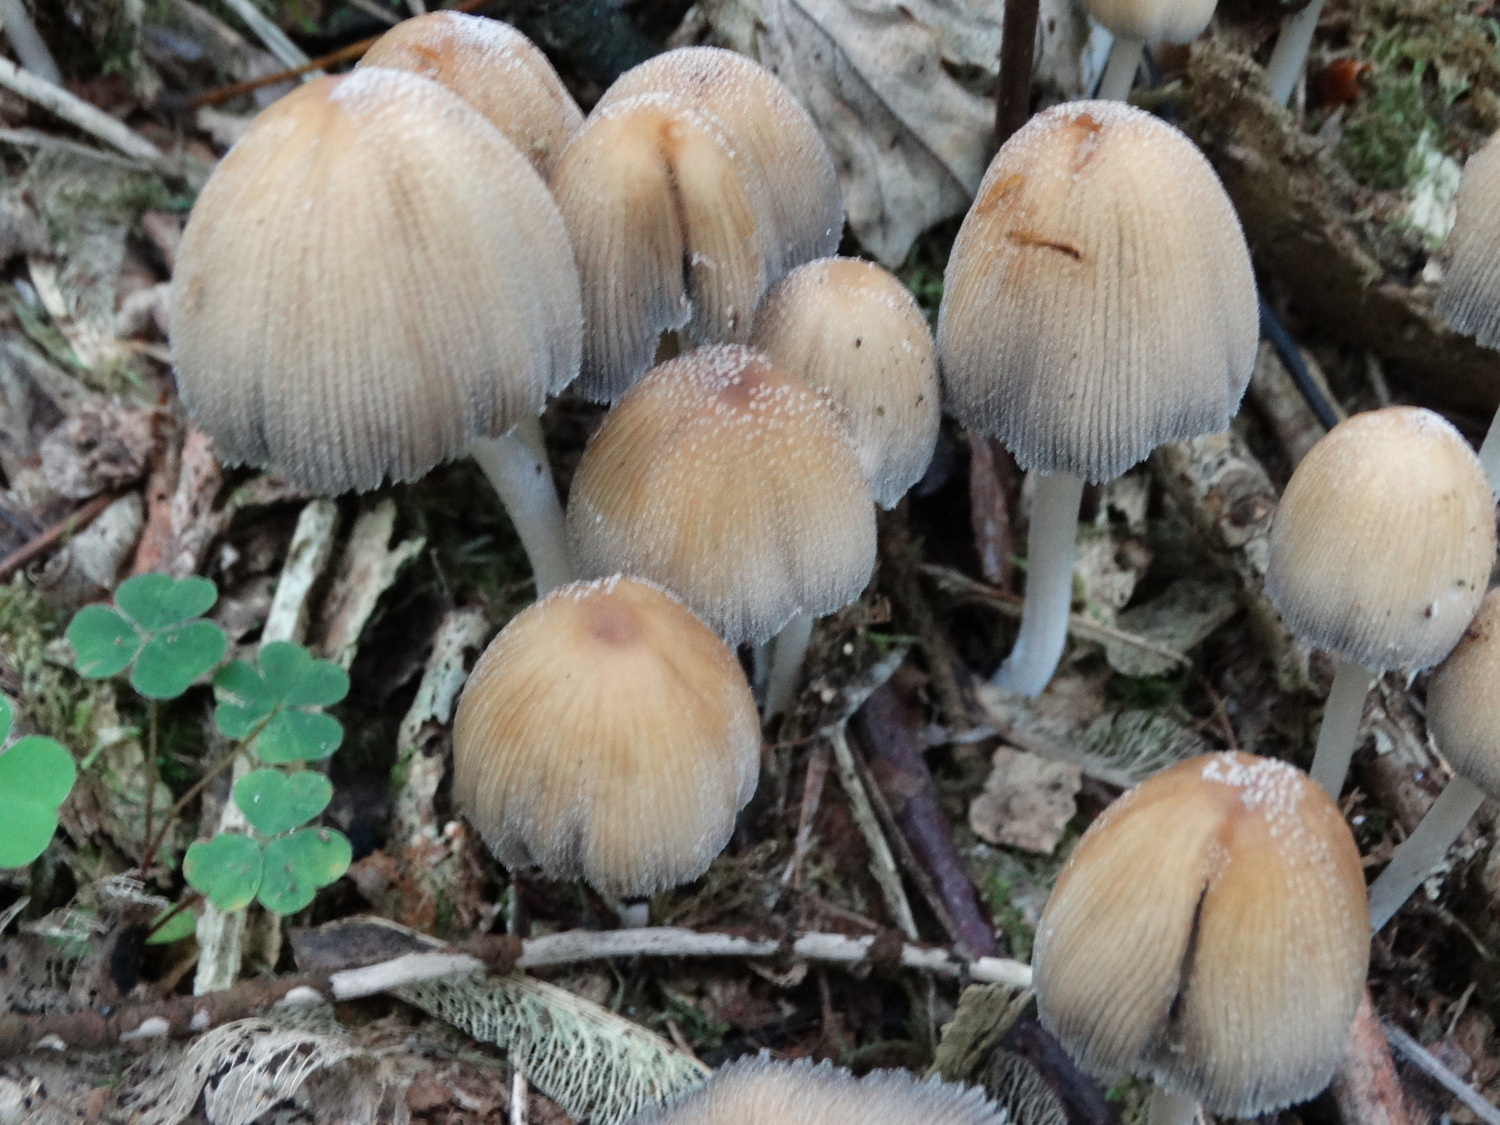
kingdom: Fungi
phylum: Basidiomycota
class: Agaricomycetes
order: Agaricales
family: Psathyrellaceae
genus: Coprinellus
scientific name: Coprinellus micaceus
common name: glimmer-blækhat
